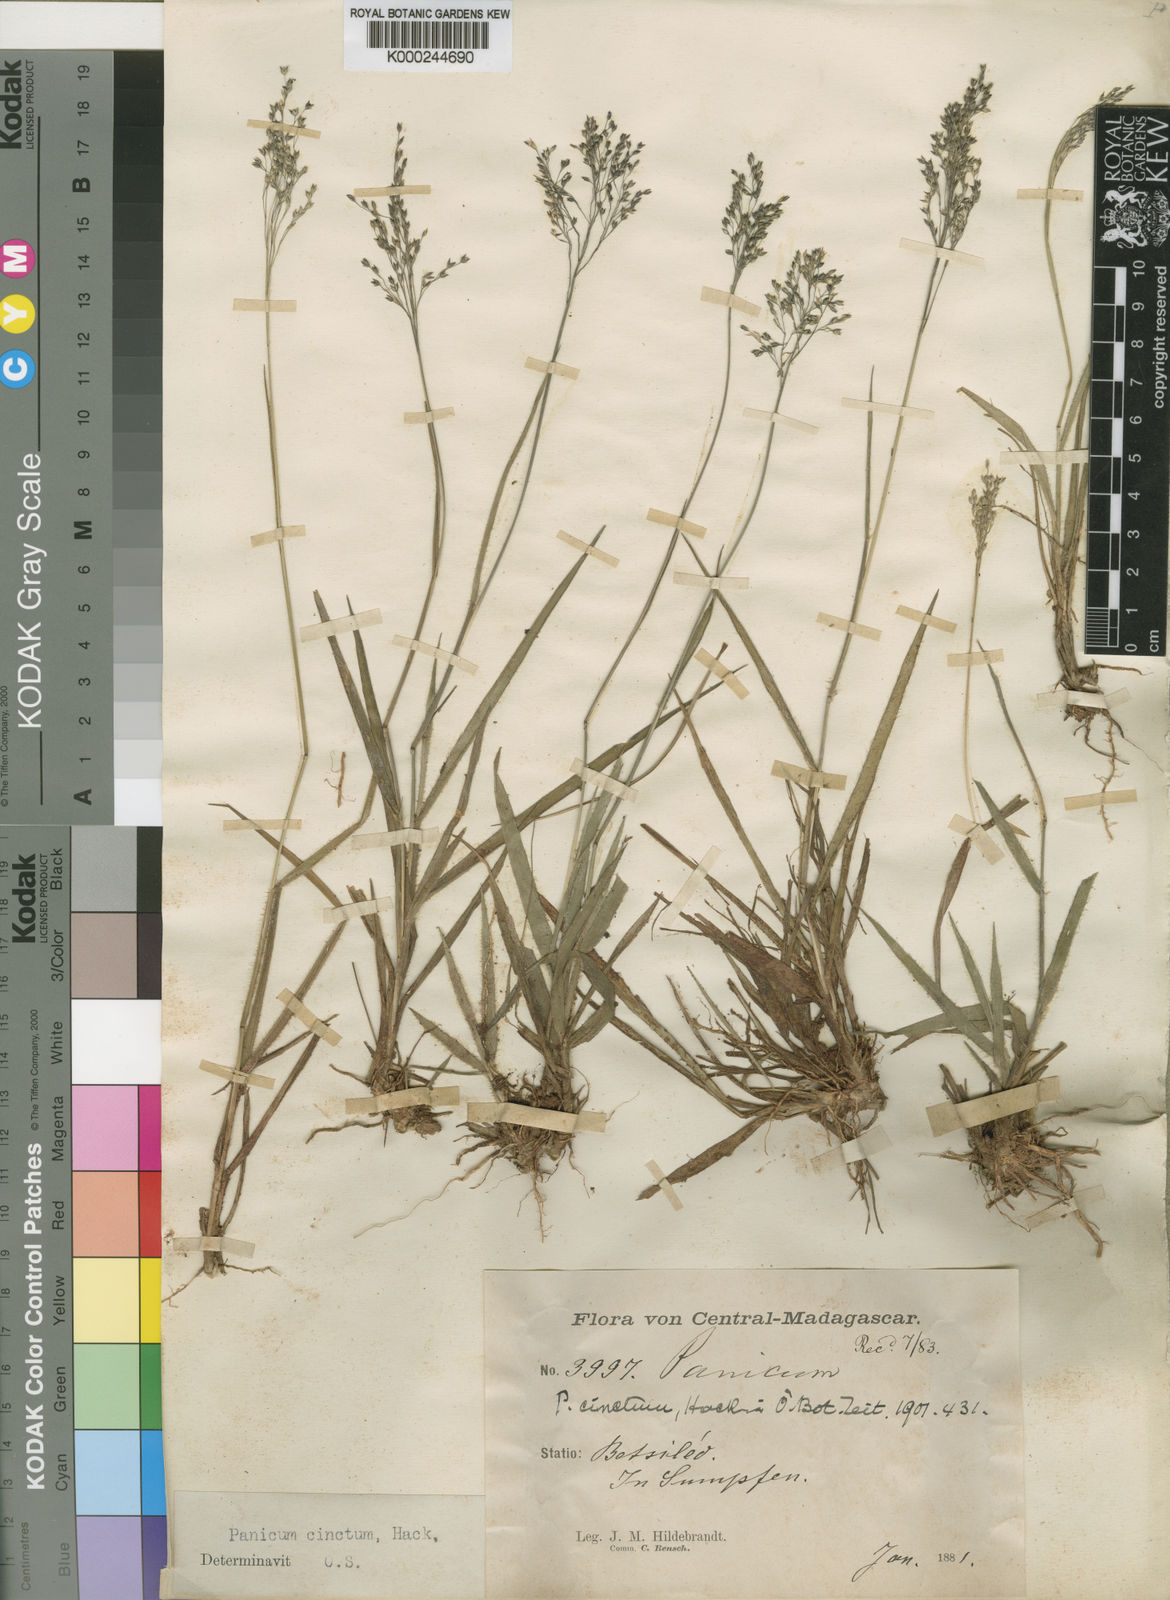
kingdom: Plantae
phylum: Tracheophyta
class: Liliopsida
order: Poales
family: Poaceae
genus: Panicum
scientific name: Panicum cinctum
